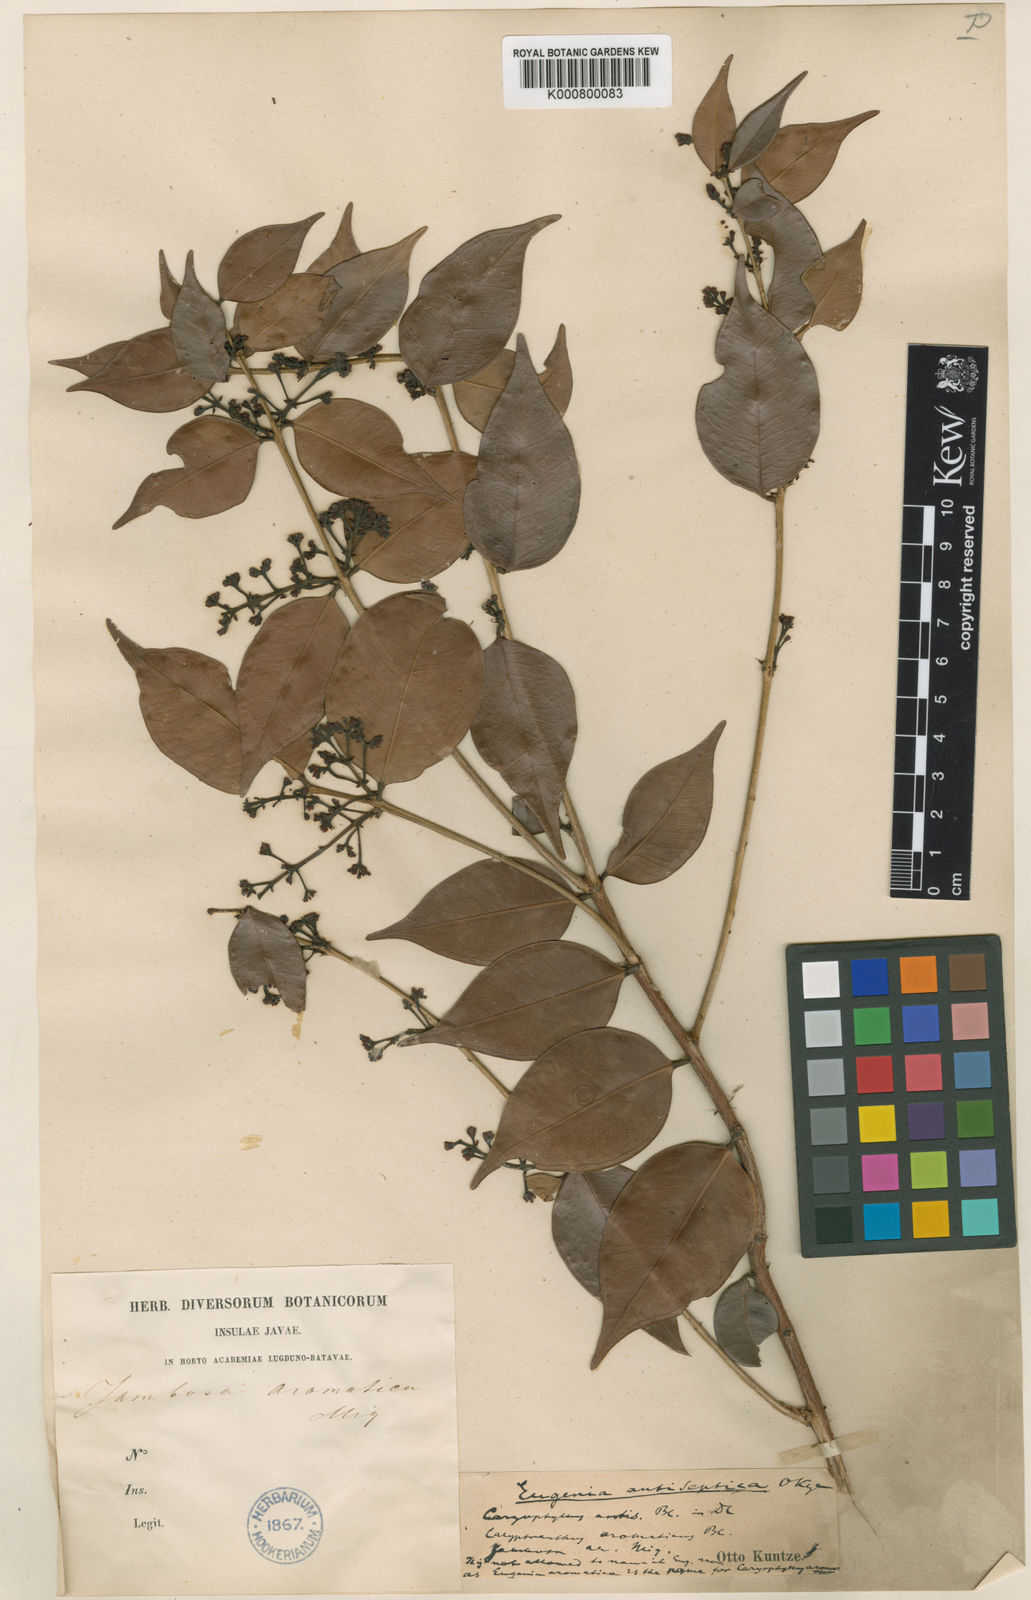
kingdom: Plantae
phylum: Tracheophyta
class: Magnoliopsida
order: Myrtales
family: Myrtaceae
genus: Syzygium
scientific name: Syzygium antisepticum
